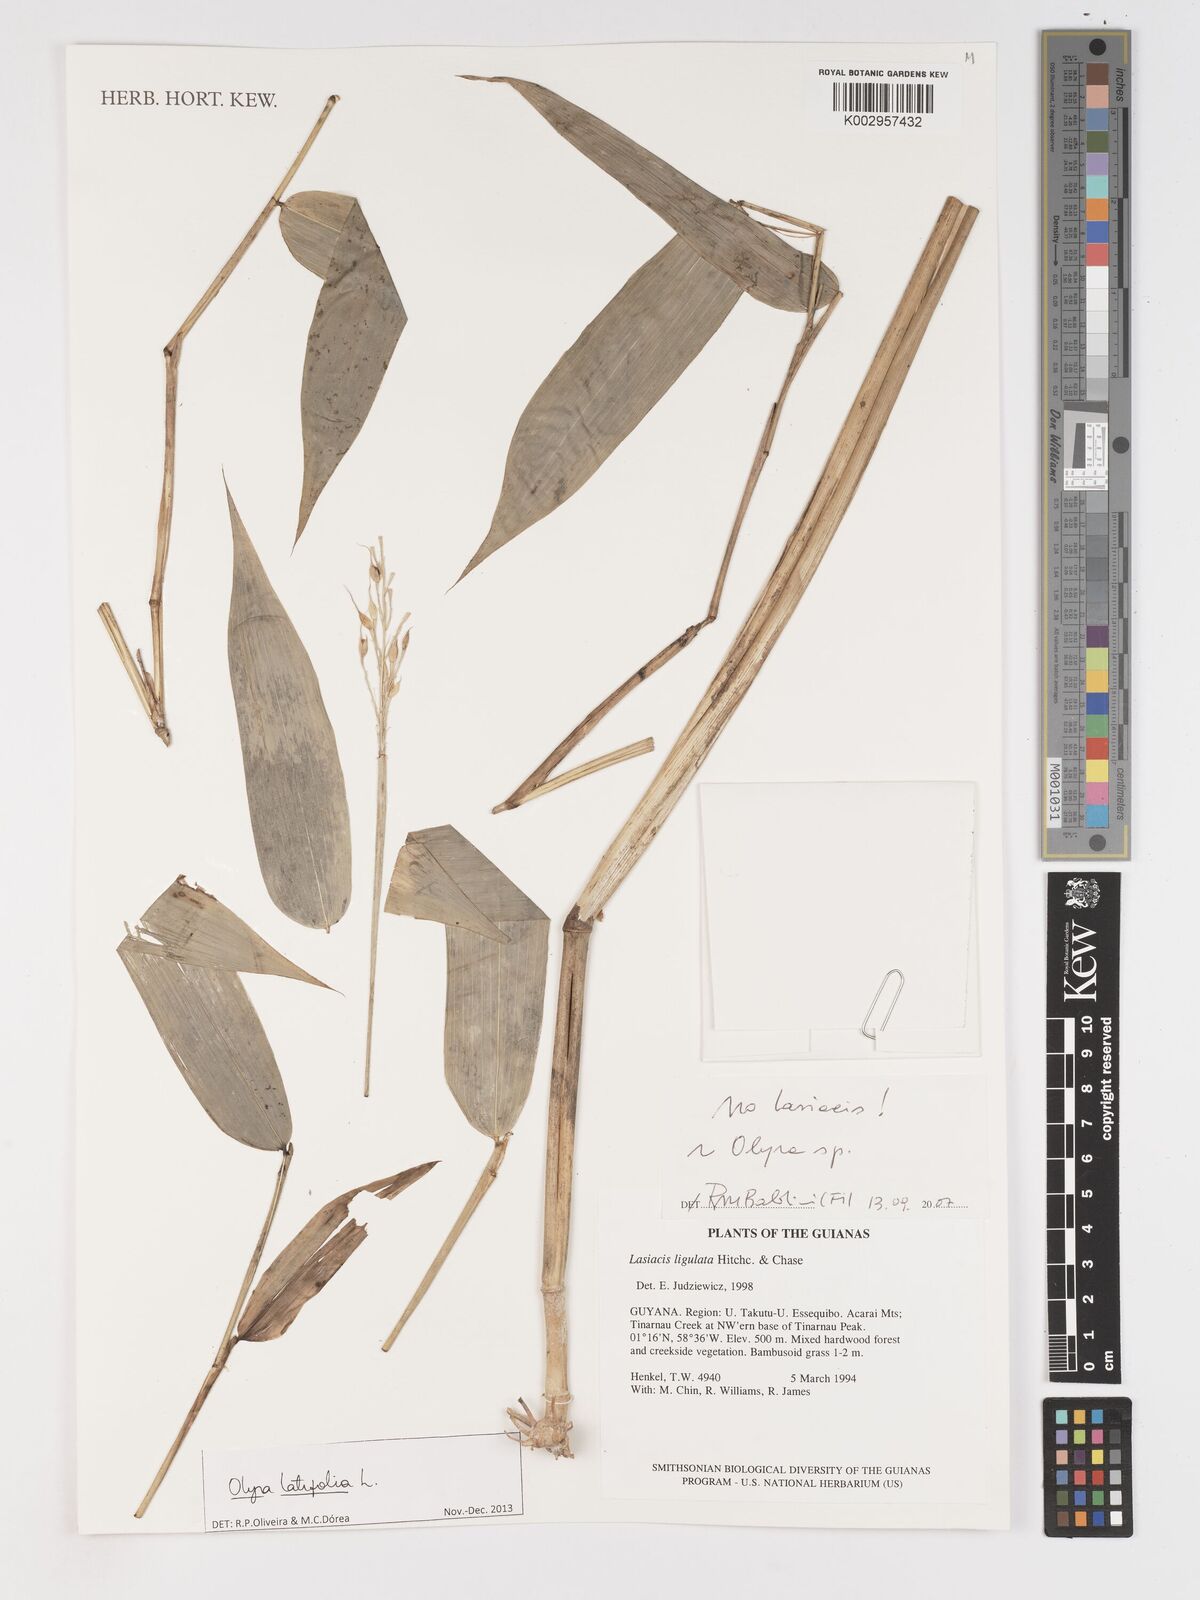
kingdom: Plantae
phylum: Tracheophyta
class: Liliopsida
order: Poales
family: Poaceae
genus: Olyra
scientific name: Olyra latifolia
